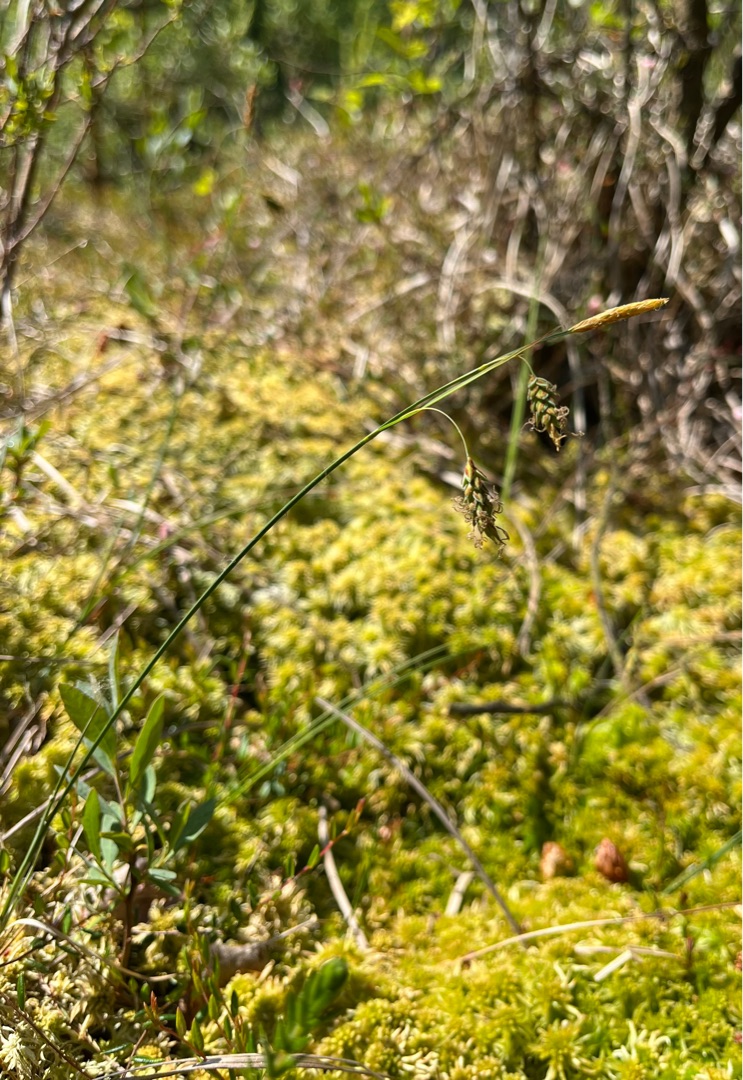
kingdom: Plantae
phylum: Tracheophyta
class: Liliopsida
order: Poales
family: Cyperaceae
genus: Carex
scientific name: Carex limosa
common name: Dynd-star
